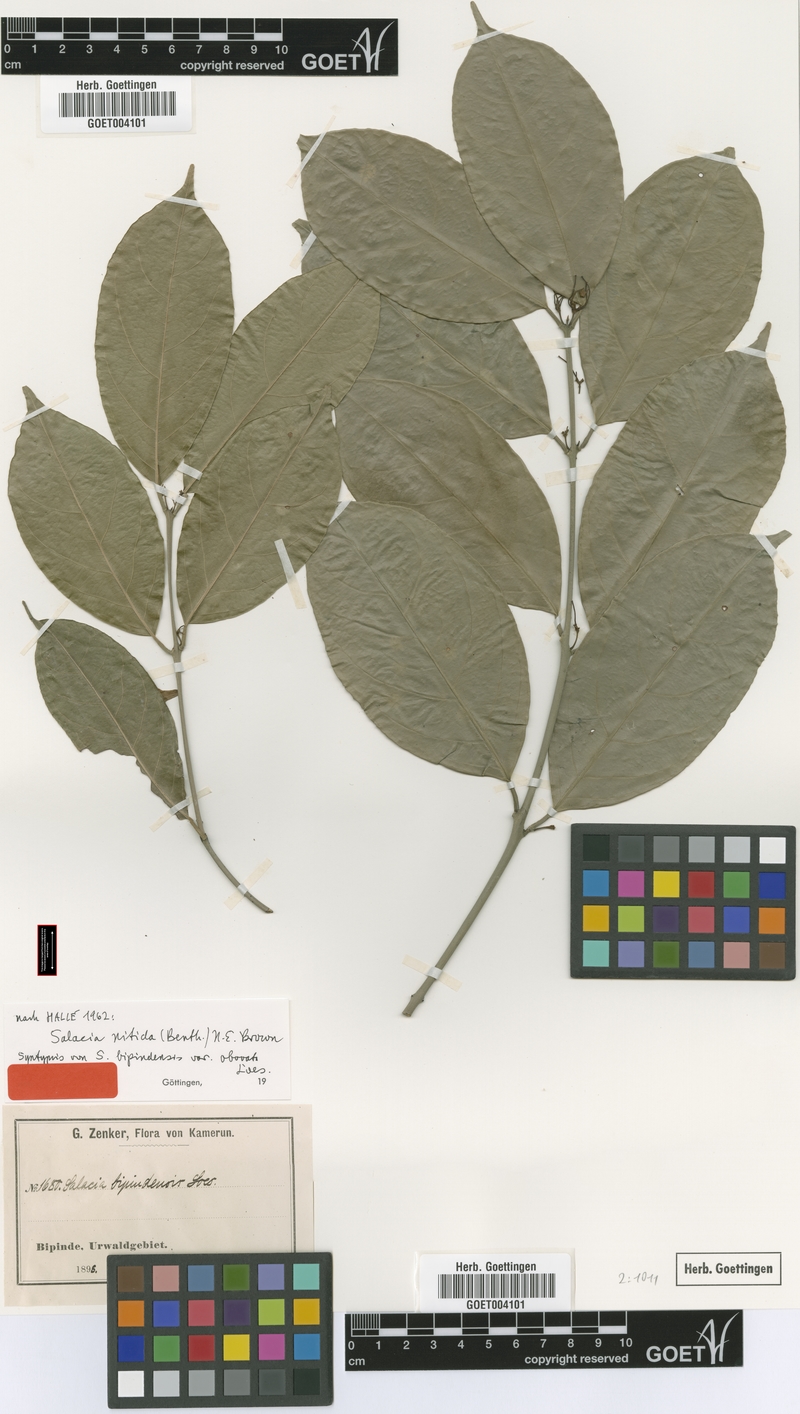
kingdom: Plantae
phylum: Tracheophyta
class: Magnoliopsida
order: Celastrales
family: Celastraceae
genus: Salacia
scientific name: Salacia nitida
